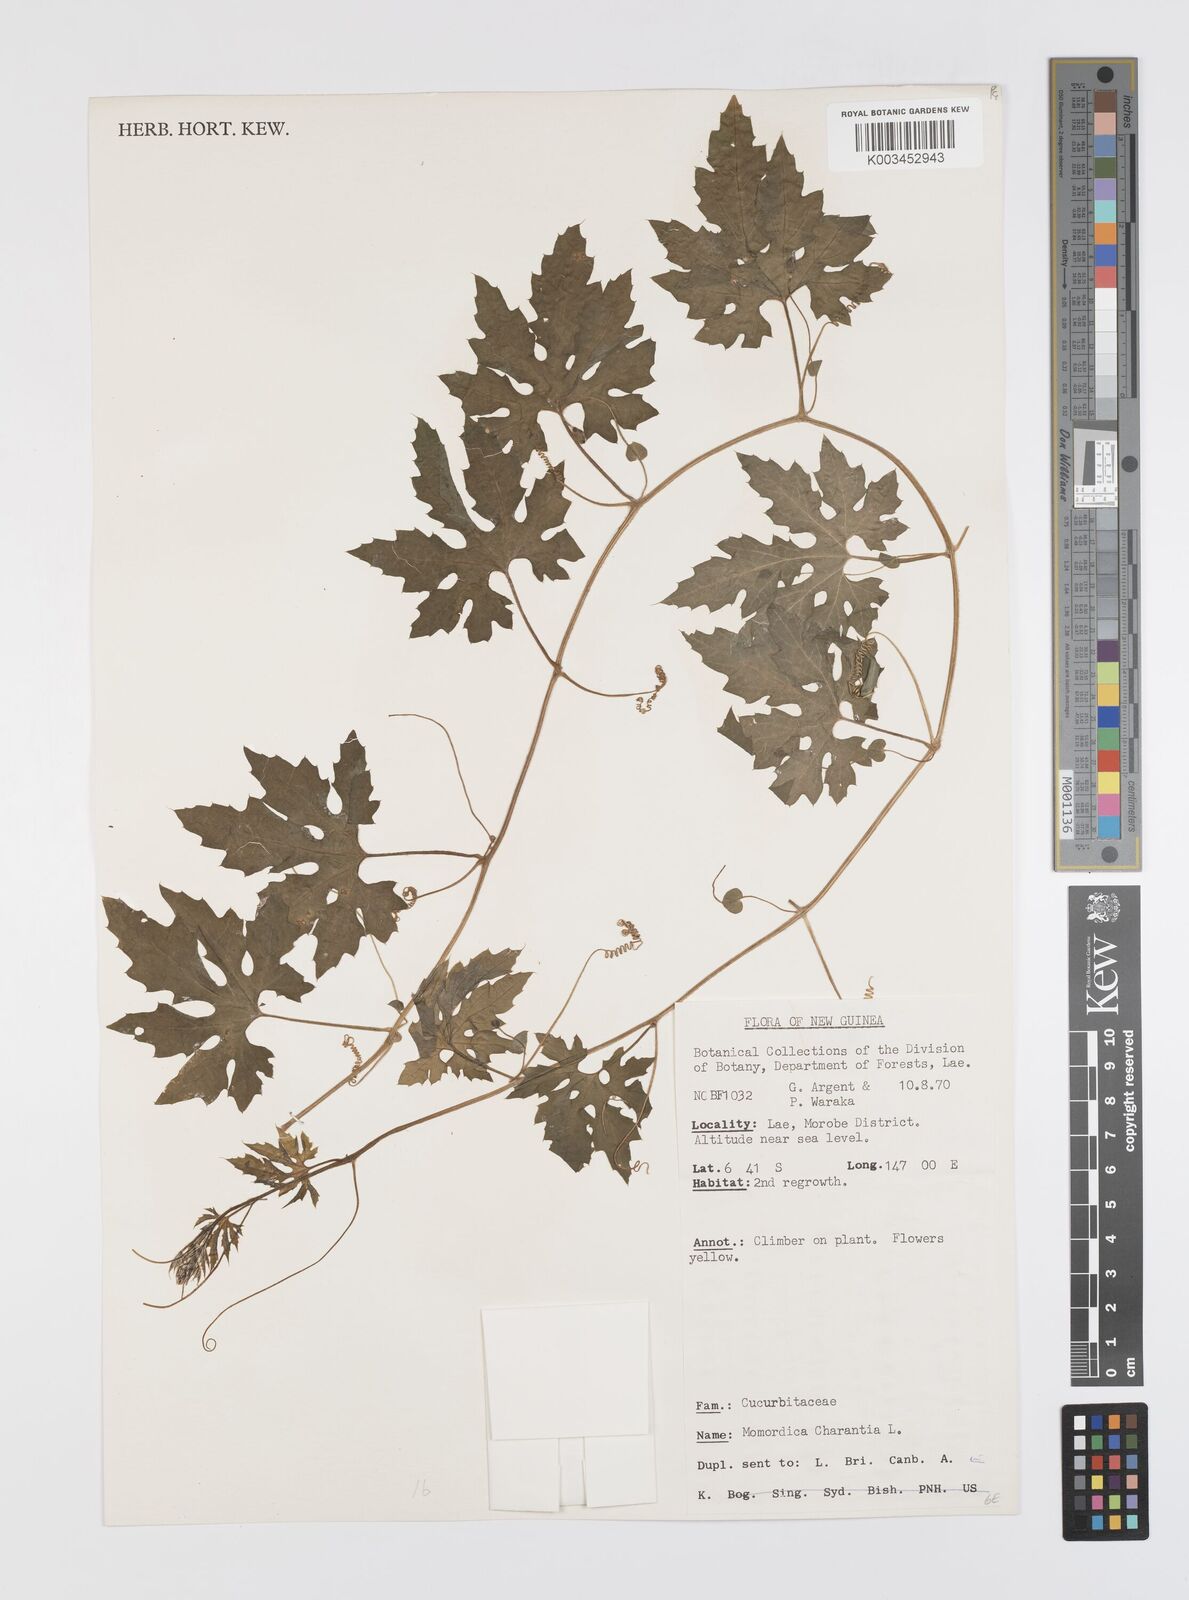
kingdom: Plantae
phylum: Tracheophyta
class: Magnoliopsida
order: Cucurbitales
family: Cucurbitaceae
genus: Momordica
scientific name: Momordica charantia
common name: Balsampear
